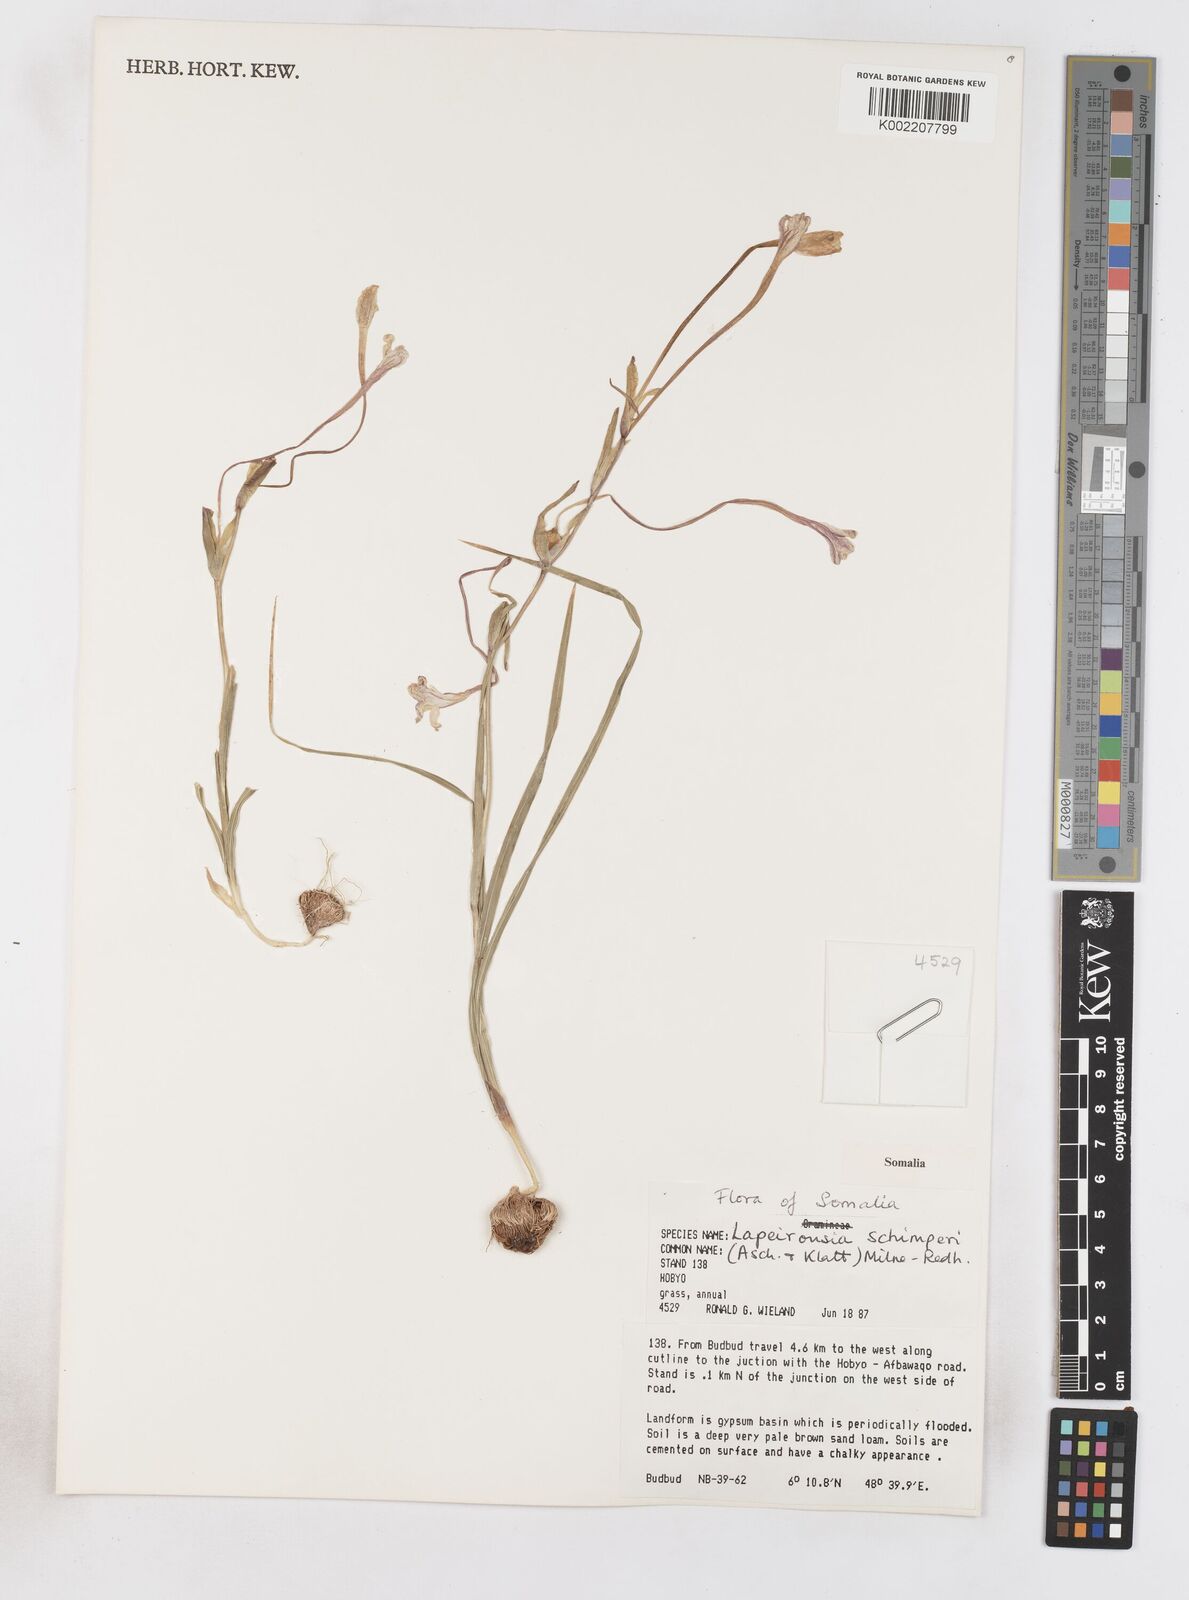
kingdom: Plantae
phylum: Tracheophyta
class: Liliopsida
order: Asparagales
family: Iridaceae
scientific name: Iridaceae
